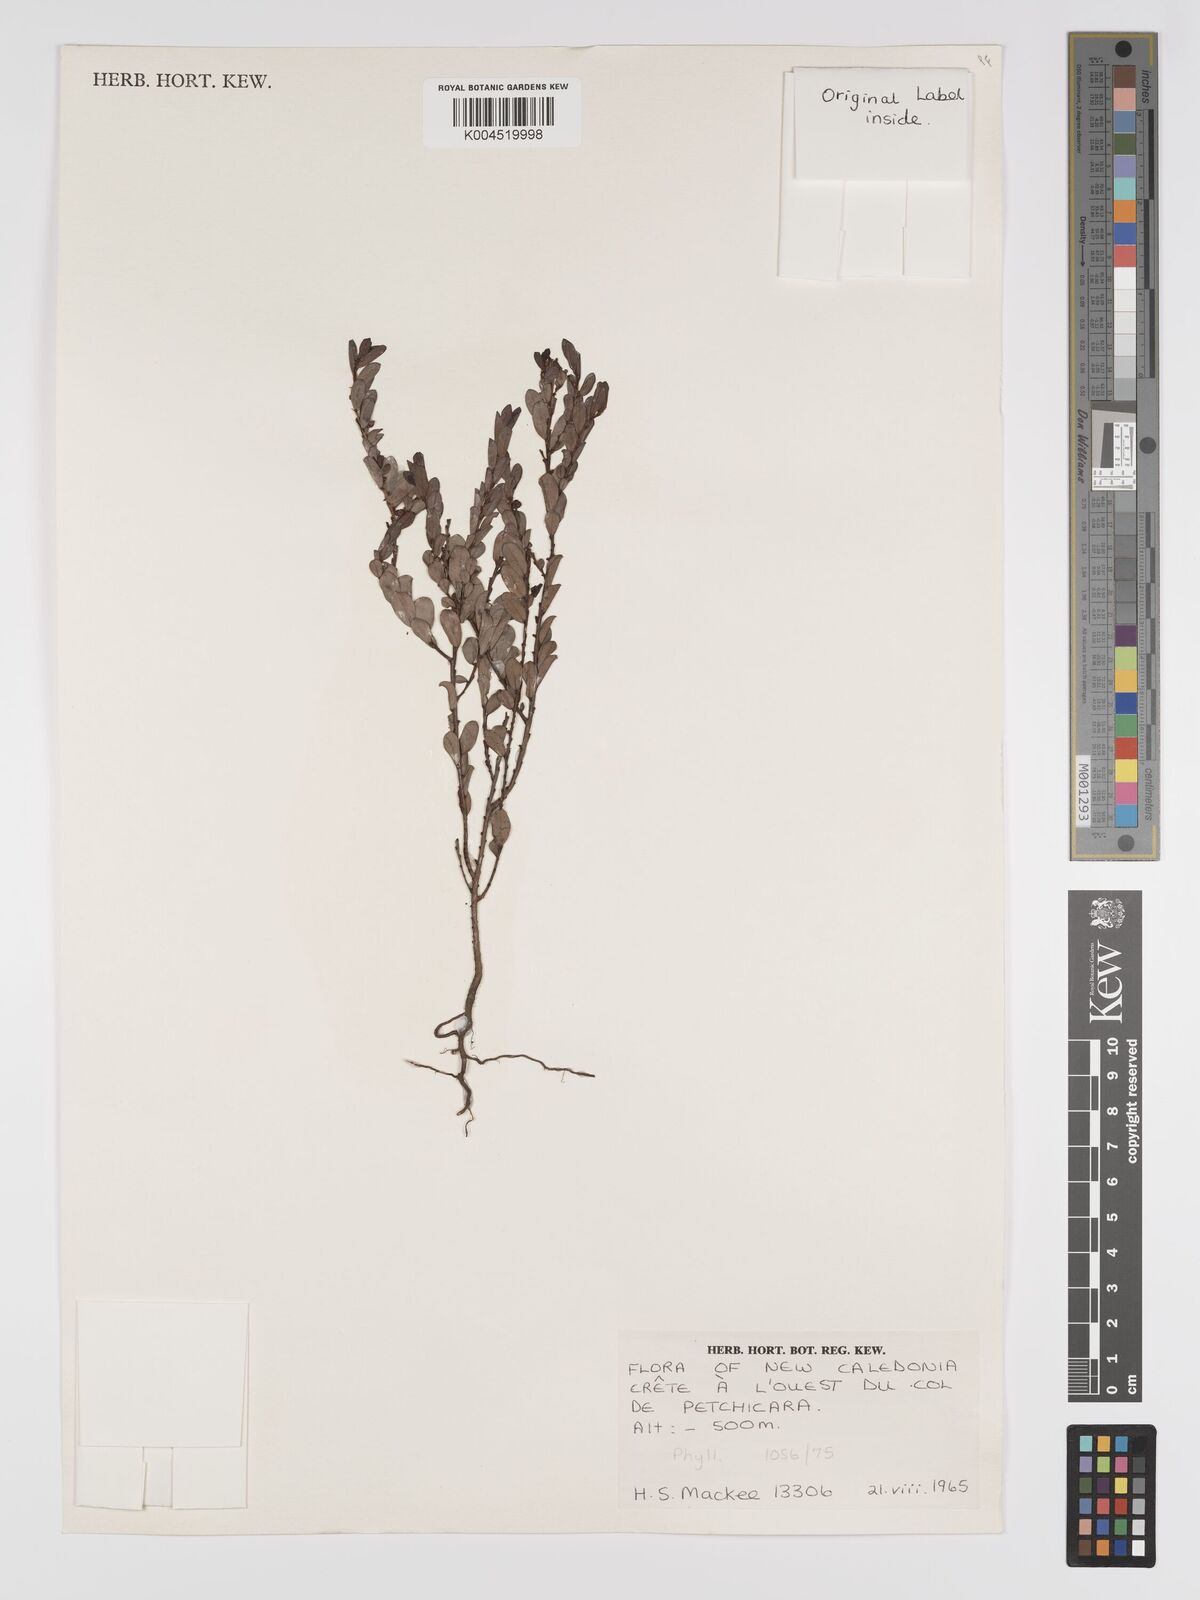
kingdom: Plantae
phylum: Tracheophyta
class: Magnoliopsida
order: Malpighiales
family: Phyllanthaceae
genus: Phyllanthus
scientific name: Phyllanthus
